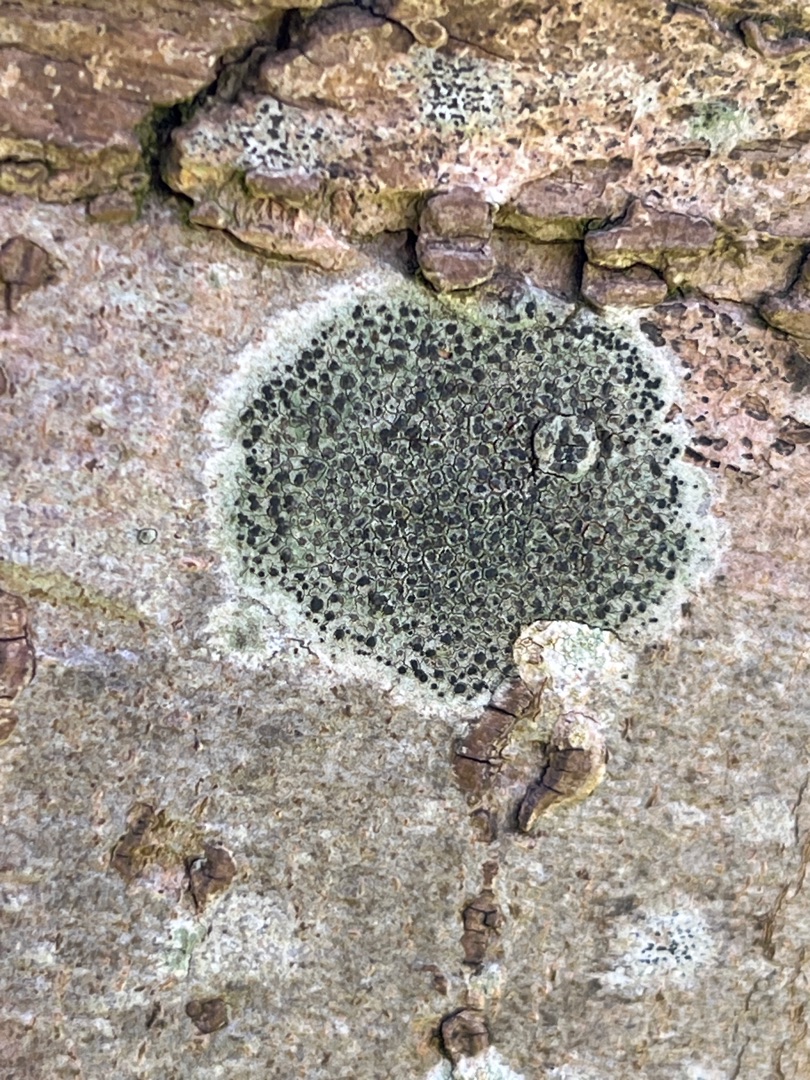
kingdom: Fungi
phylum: Ascomycota
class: Lecanoromycetes
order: Lecanorales
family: Lecanoraceae
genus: Lecidella
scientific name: Lecidella elaeochroma
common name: Grågrøn skivelav
